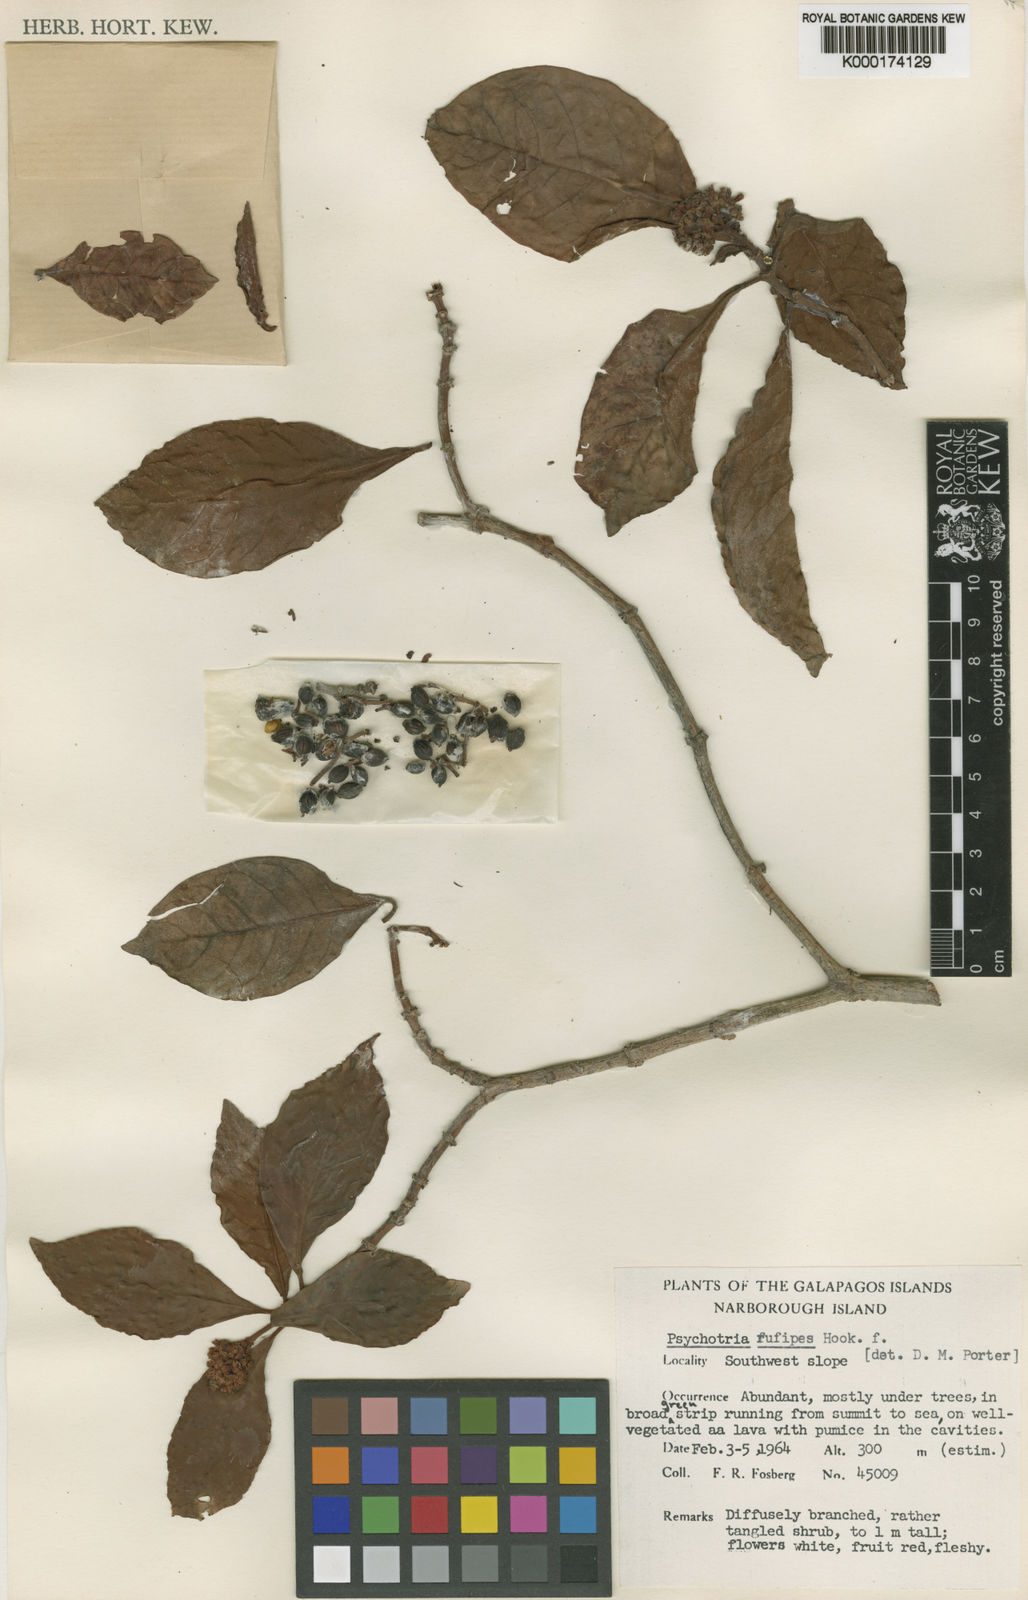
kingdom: Plantae
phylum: Tracheophyta
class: Magnoliopsida
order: Gentianales
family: Rubiaceae
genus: Psychotria
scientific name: Psychotria rufipes
